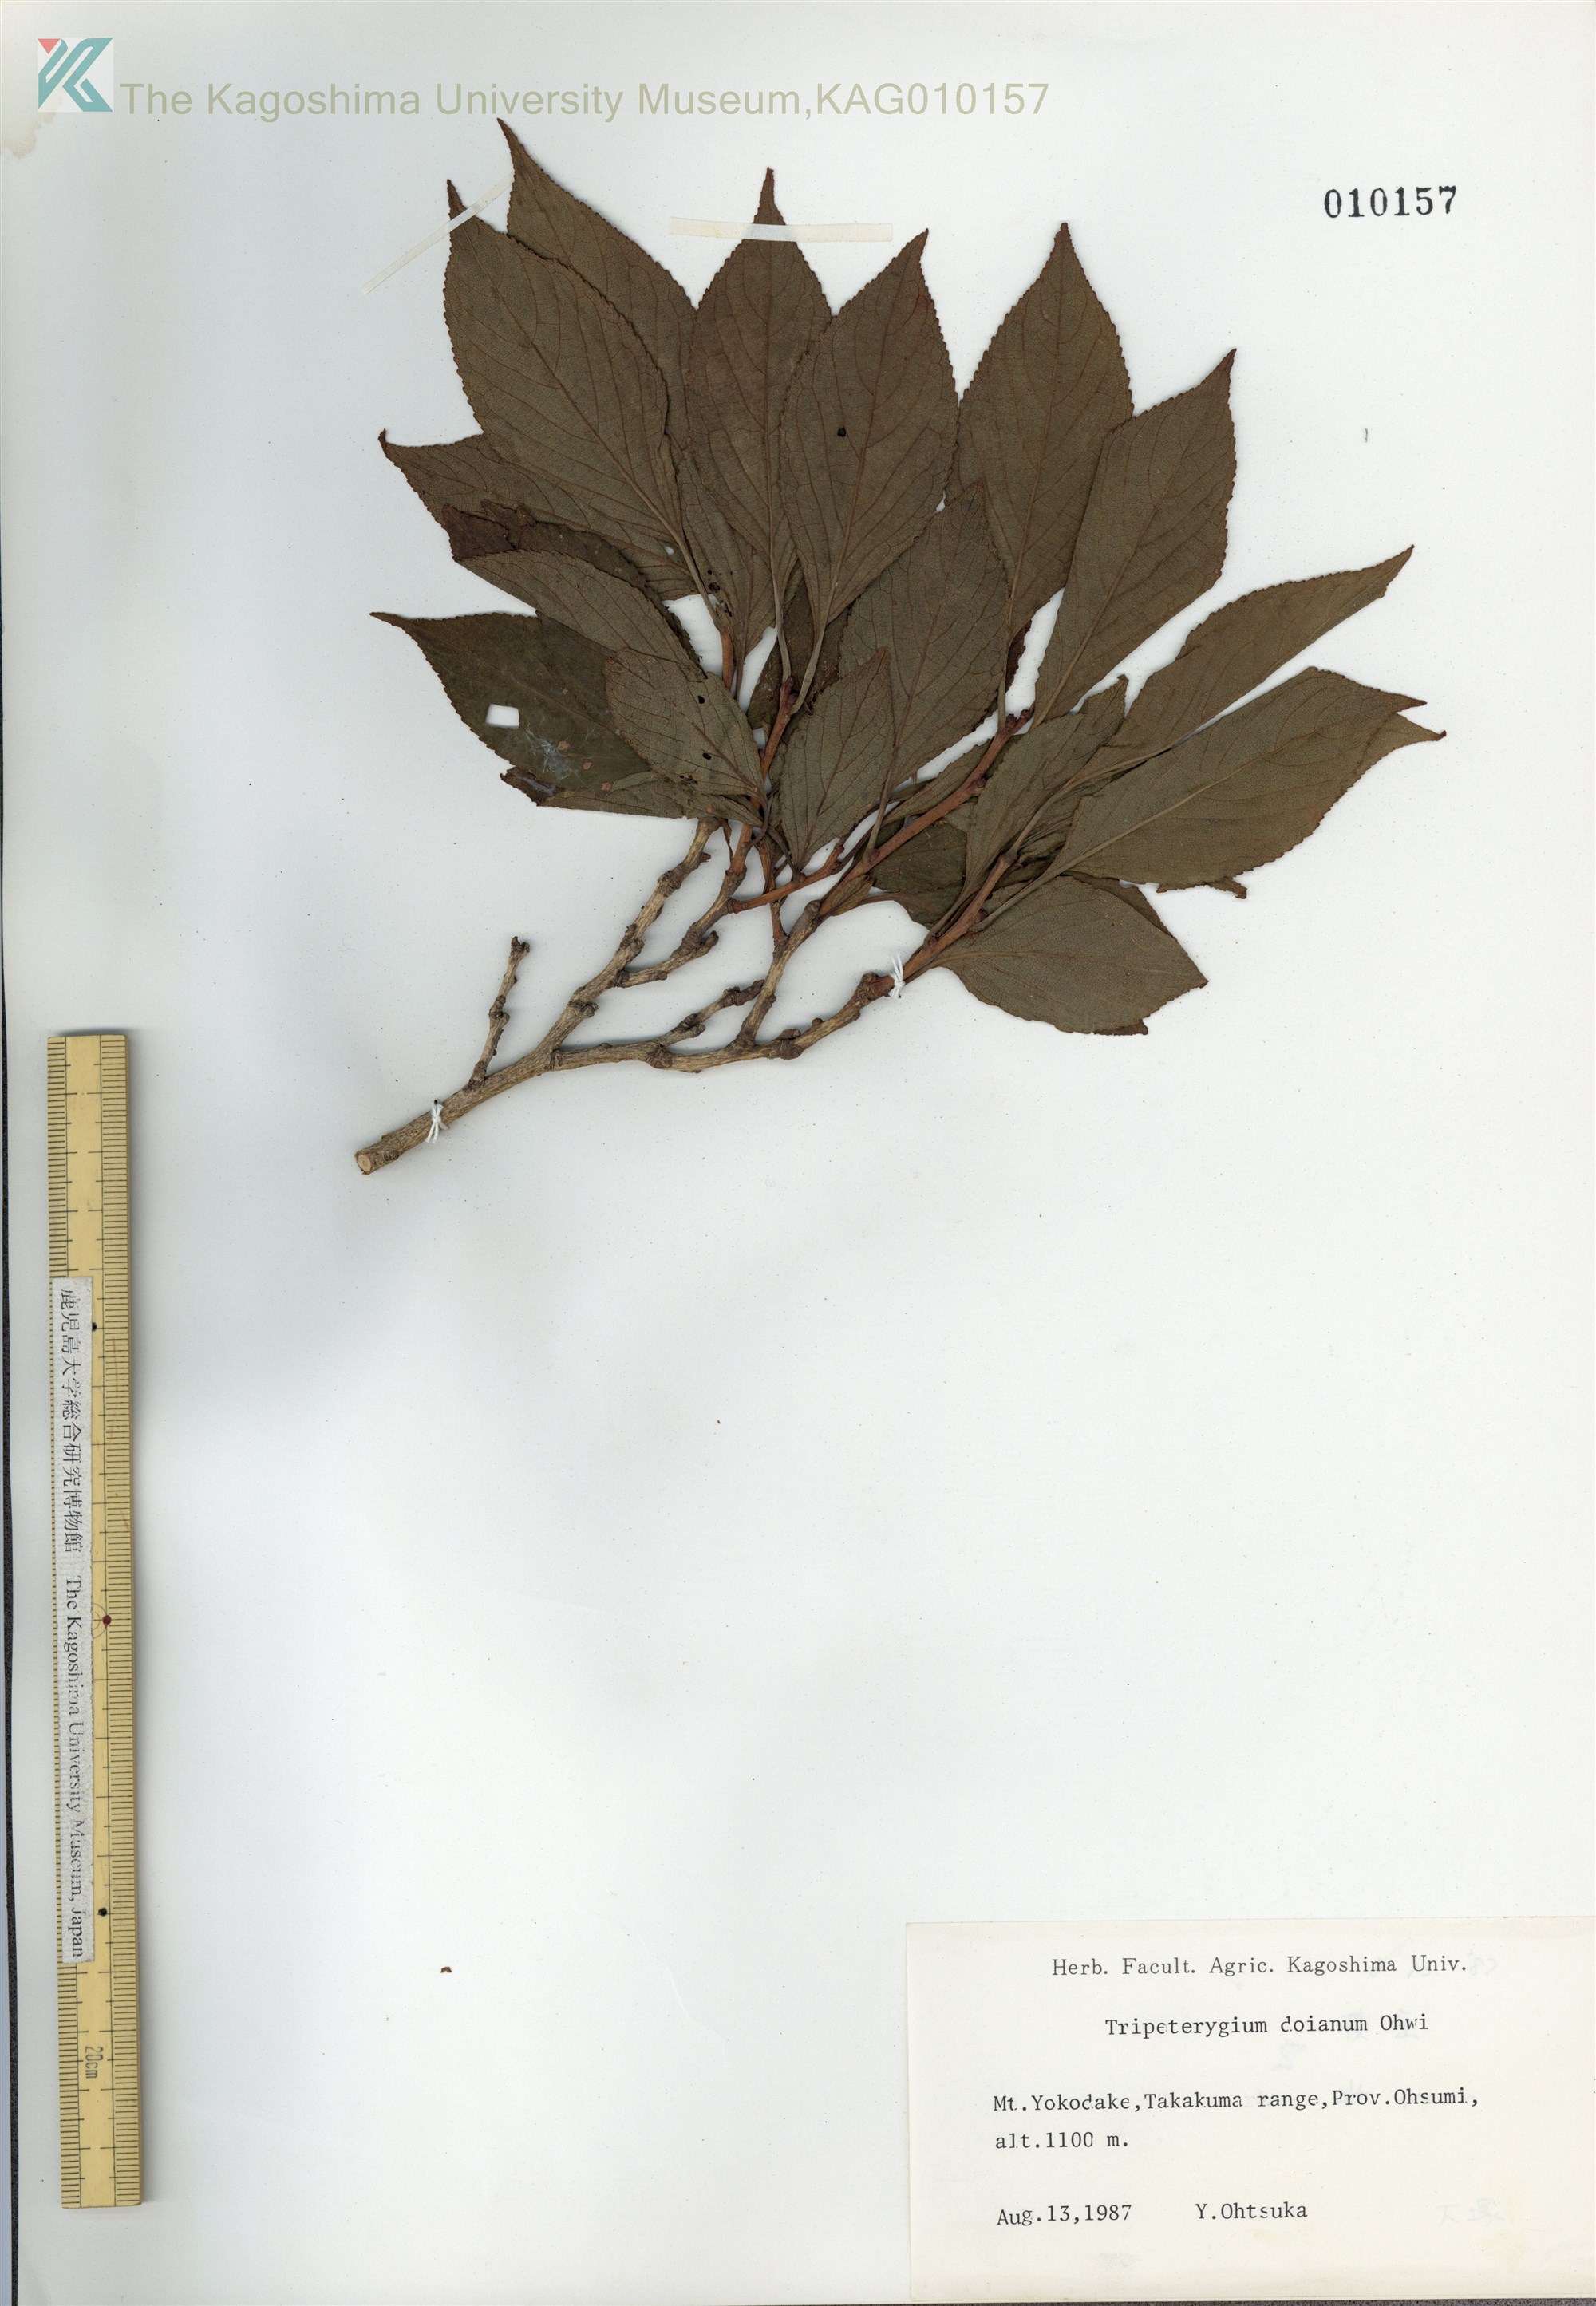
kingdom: Plantae
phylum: Tracheophyta
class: Magnoliopsida
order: Celastrales
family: Celastraceae
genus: Tripterygium
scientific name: Tripterygium doianum
